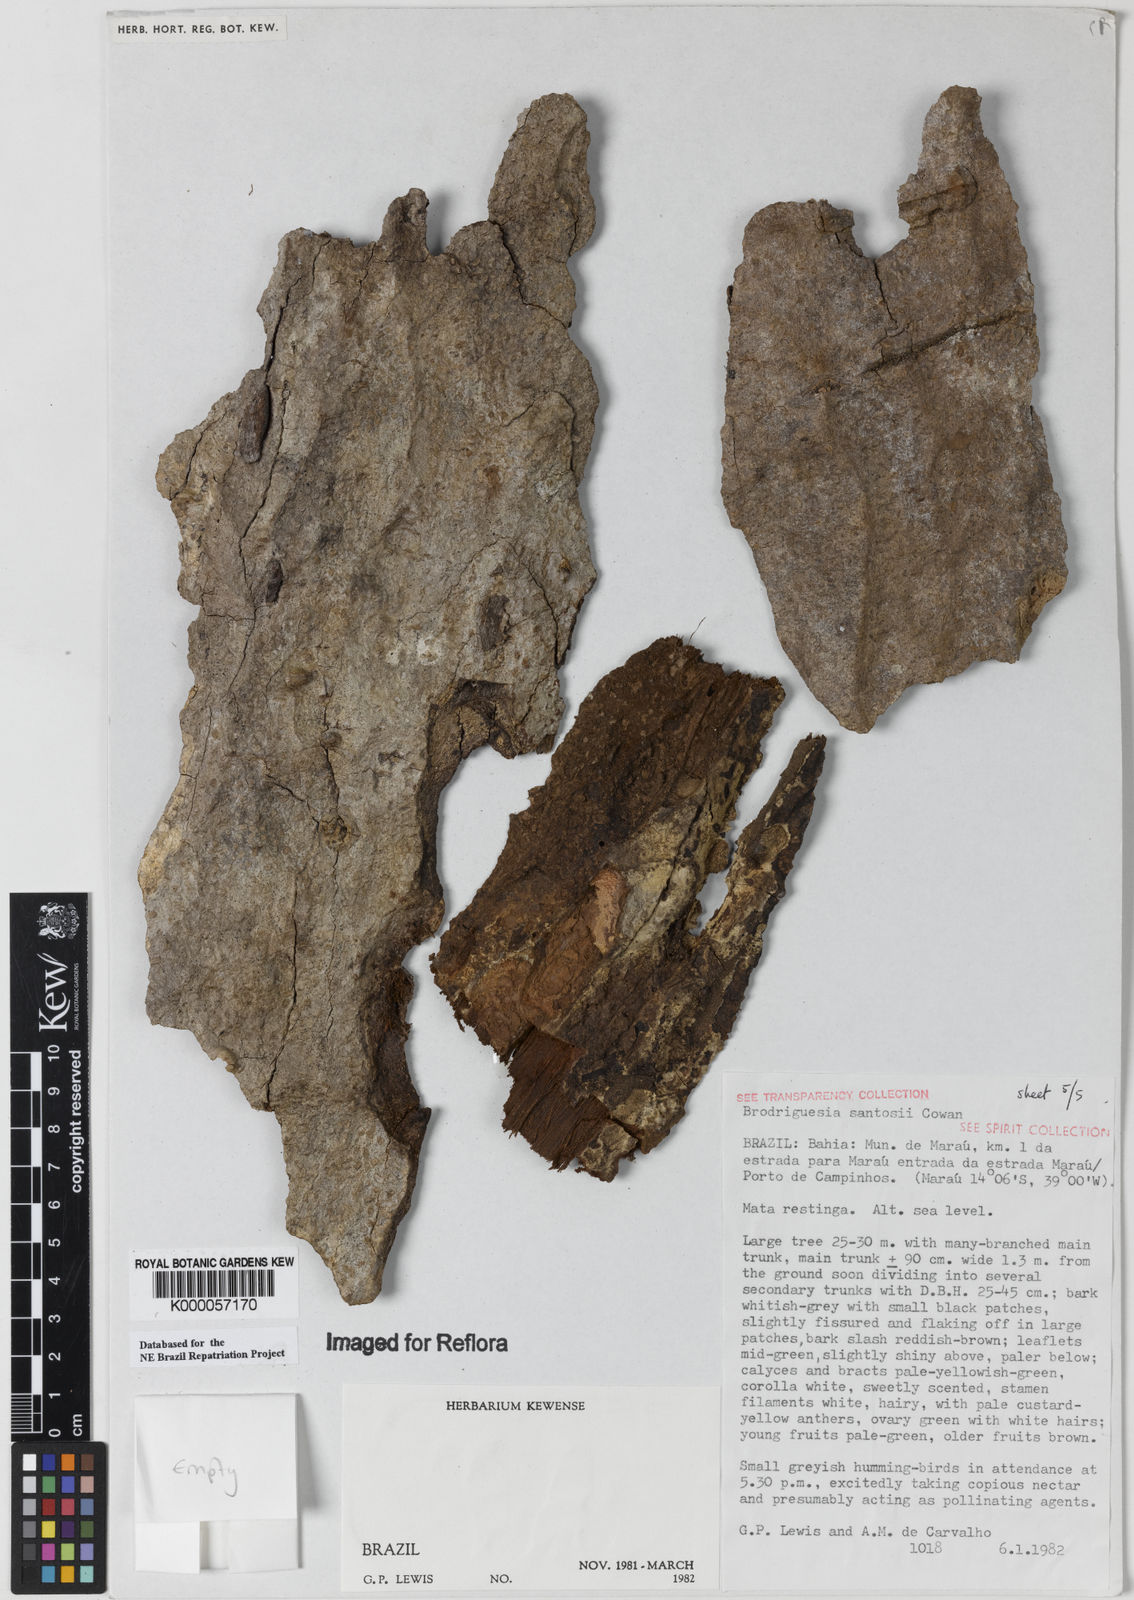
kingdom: Plantae
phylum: Tracheophyta
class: Magnoliopsida
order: Fabales
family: Fabaceae
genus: Brodriguesia
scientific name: Brodriguesia santosii
